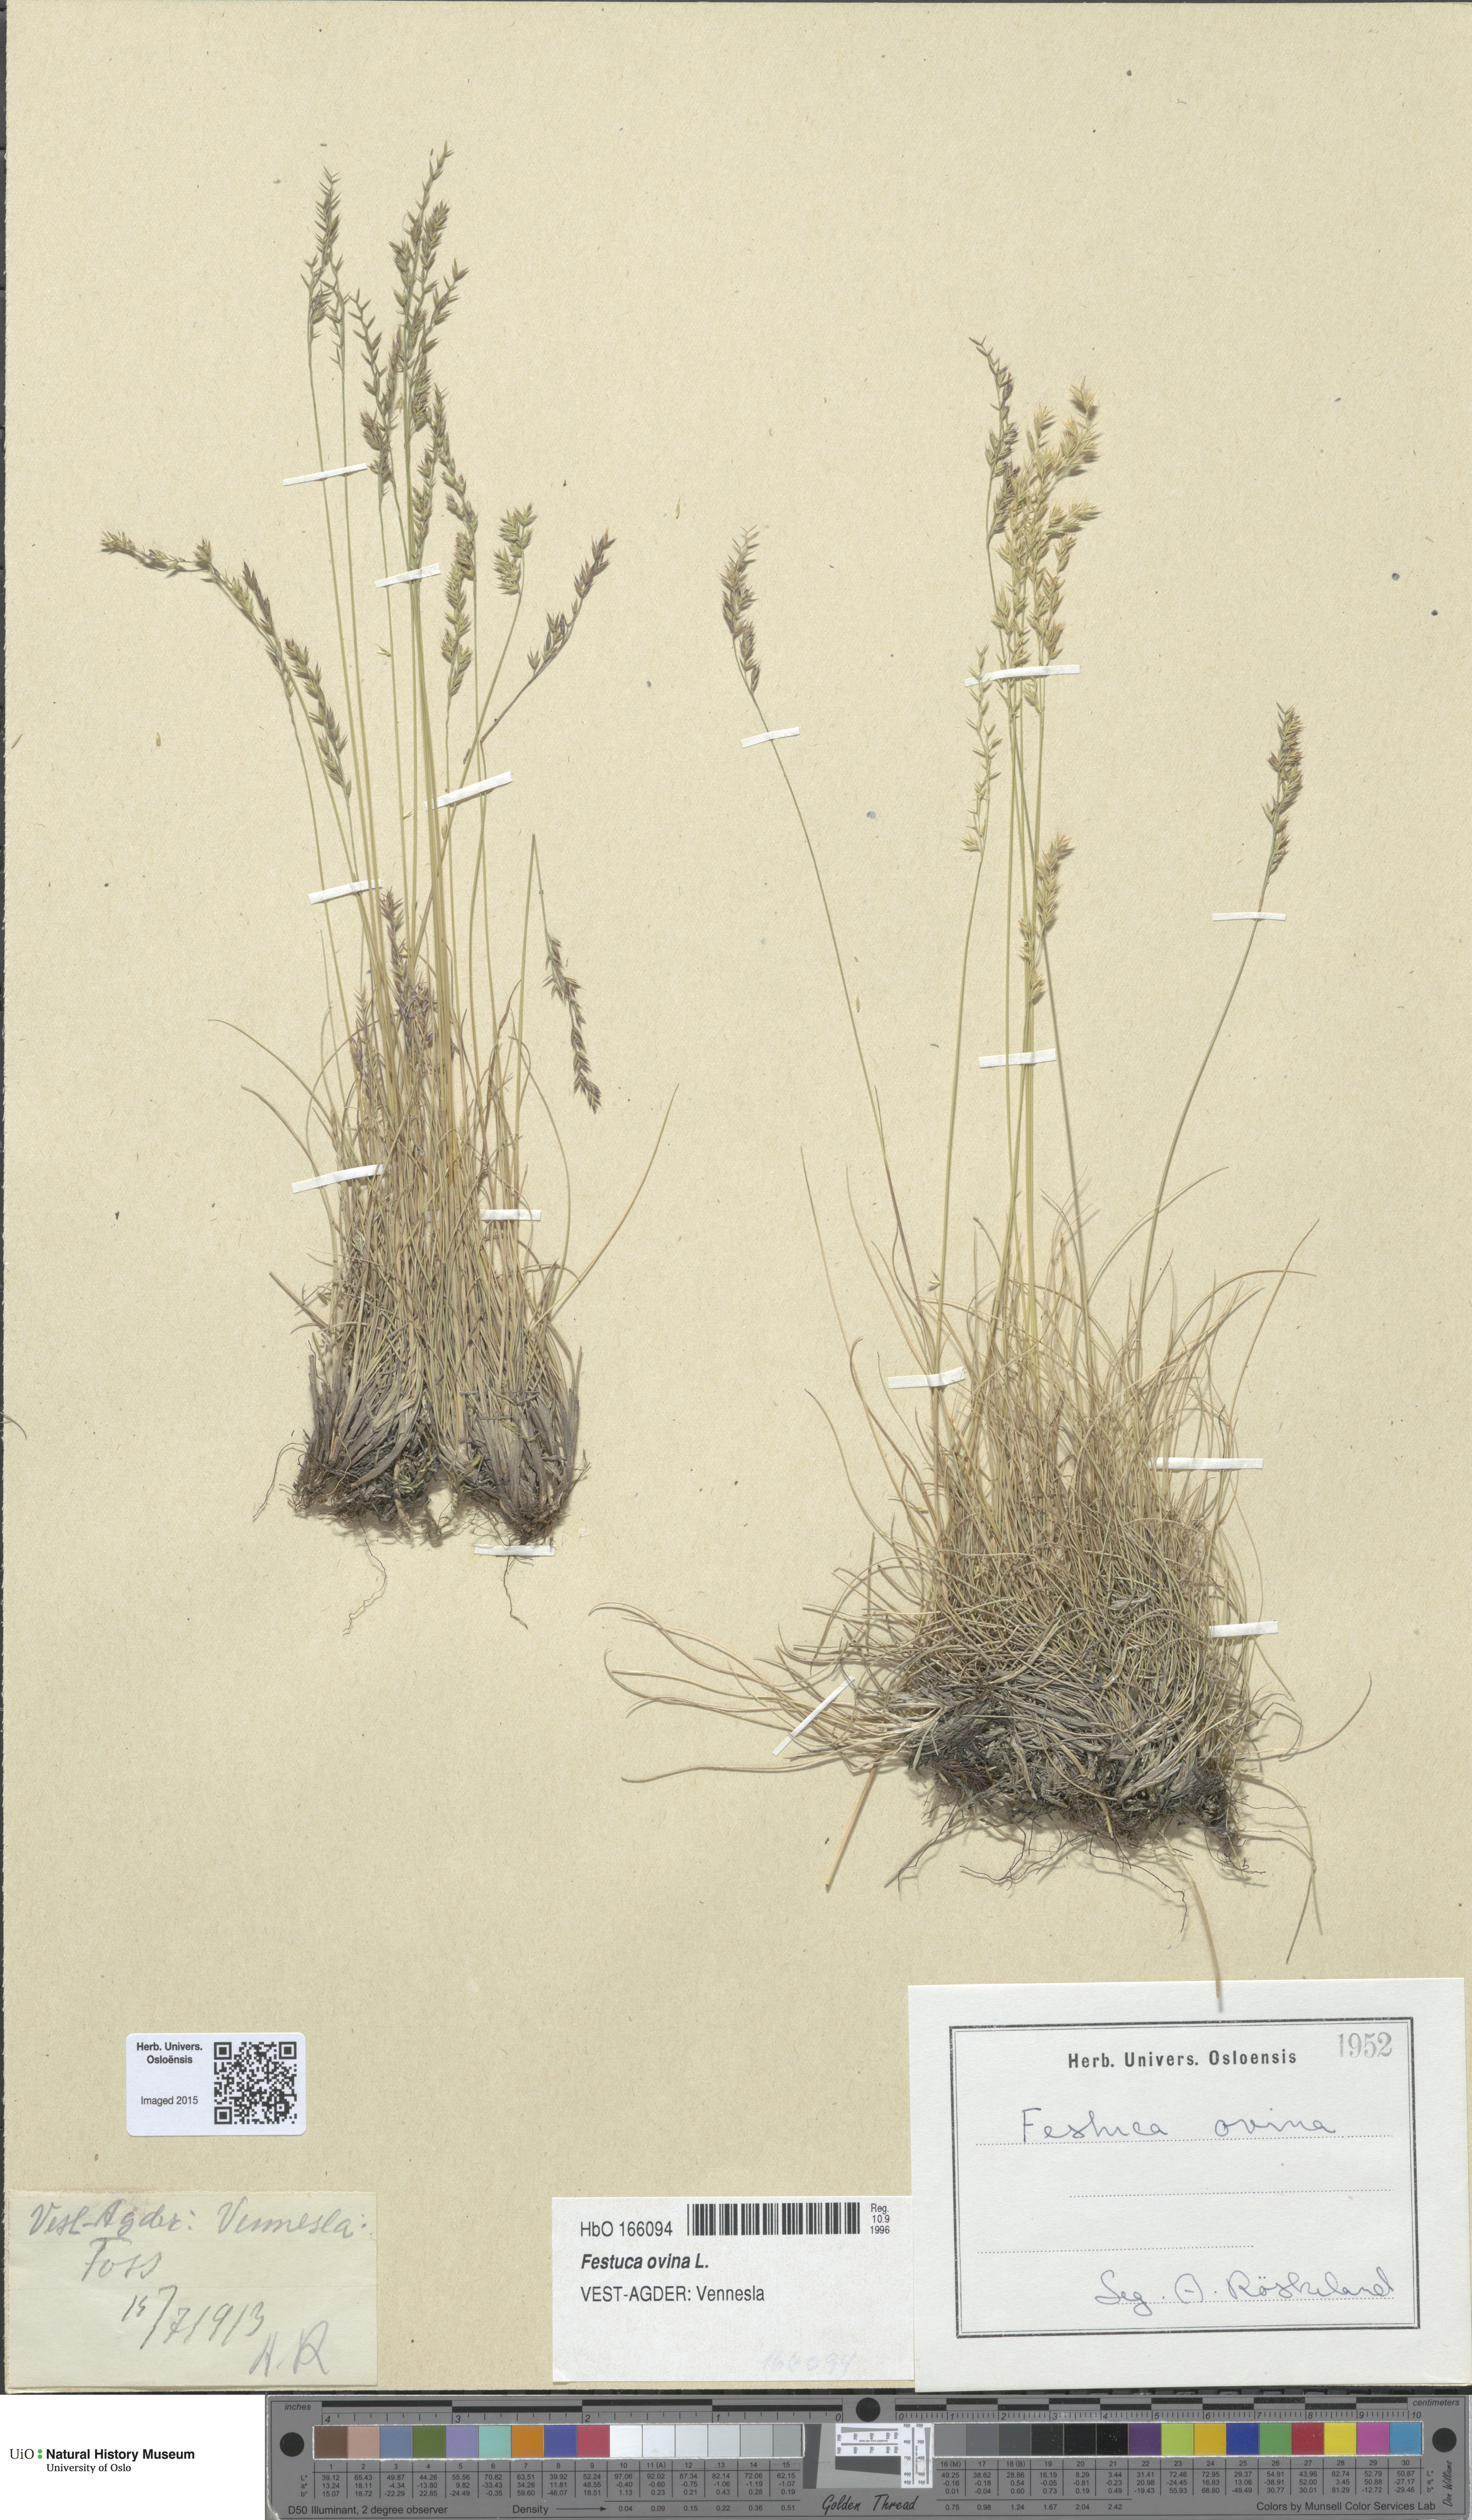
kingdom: Plantae
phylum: Tracheophyta
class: Liliopsida
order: Poales
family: Poaceae
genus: Festuca
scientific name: Festuca ovina
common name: Sheep fescue
